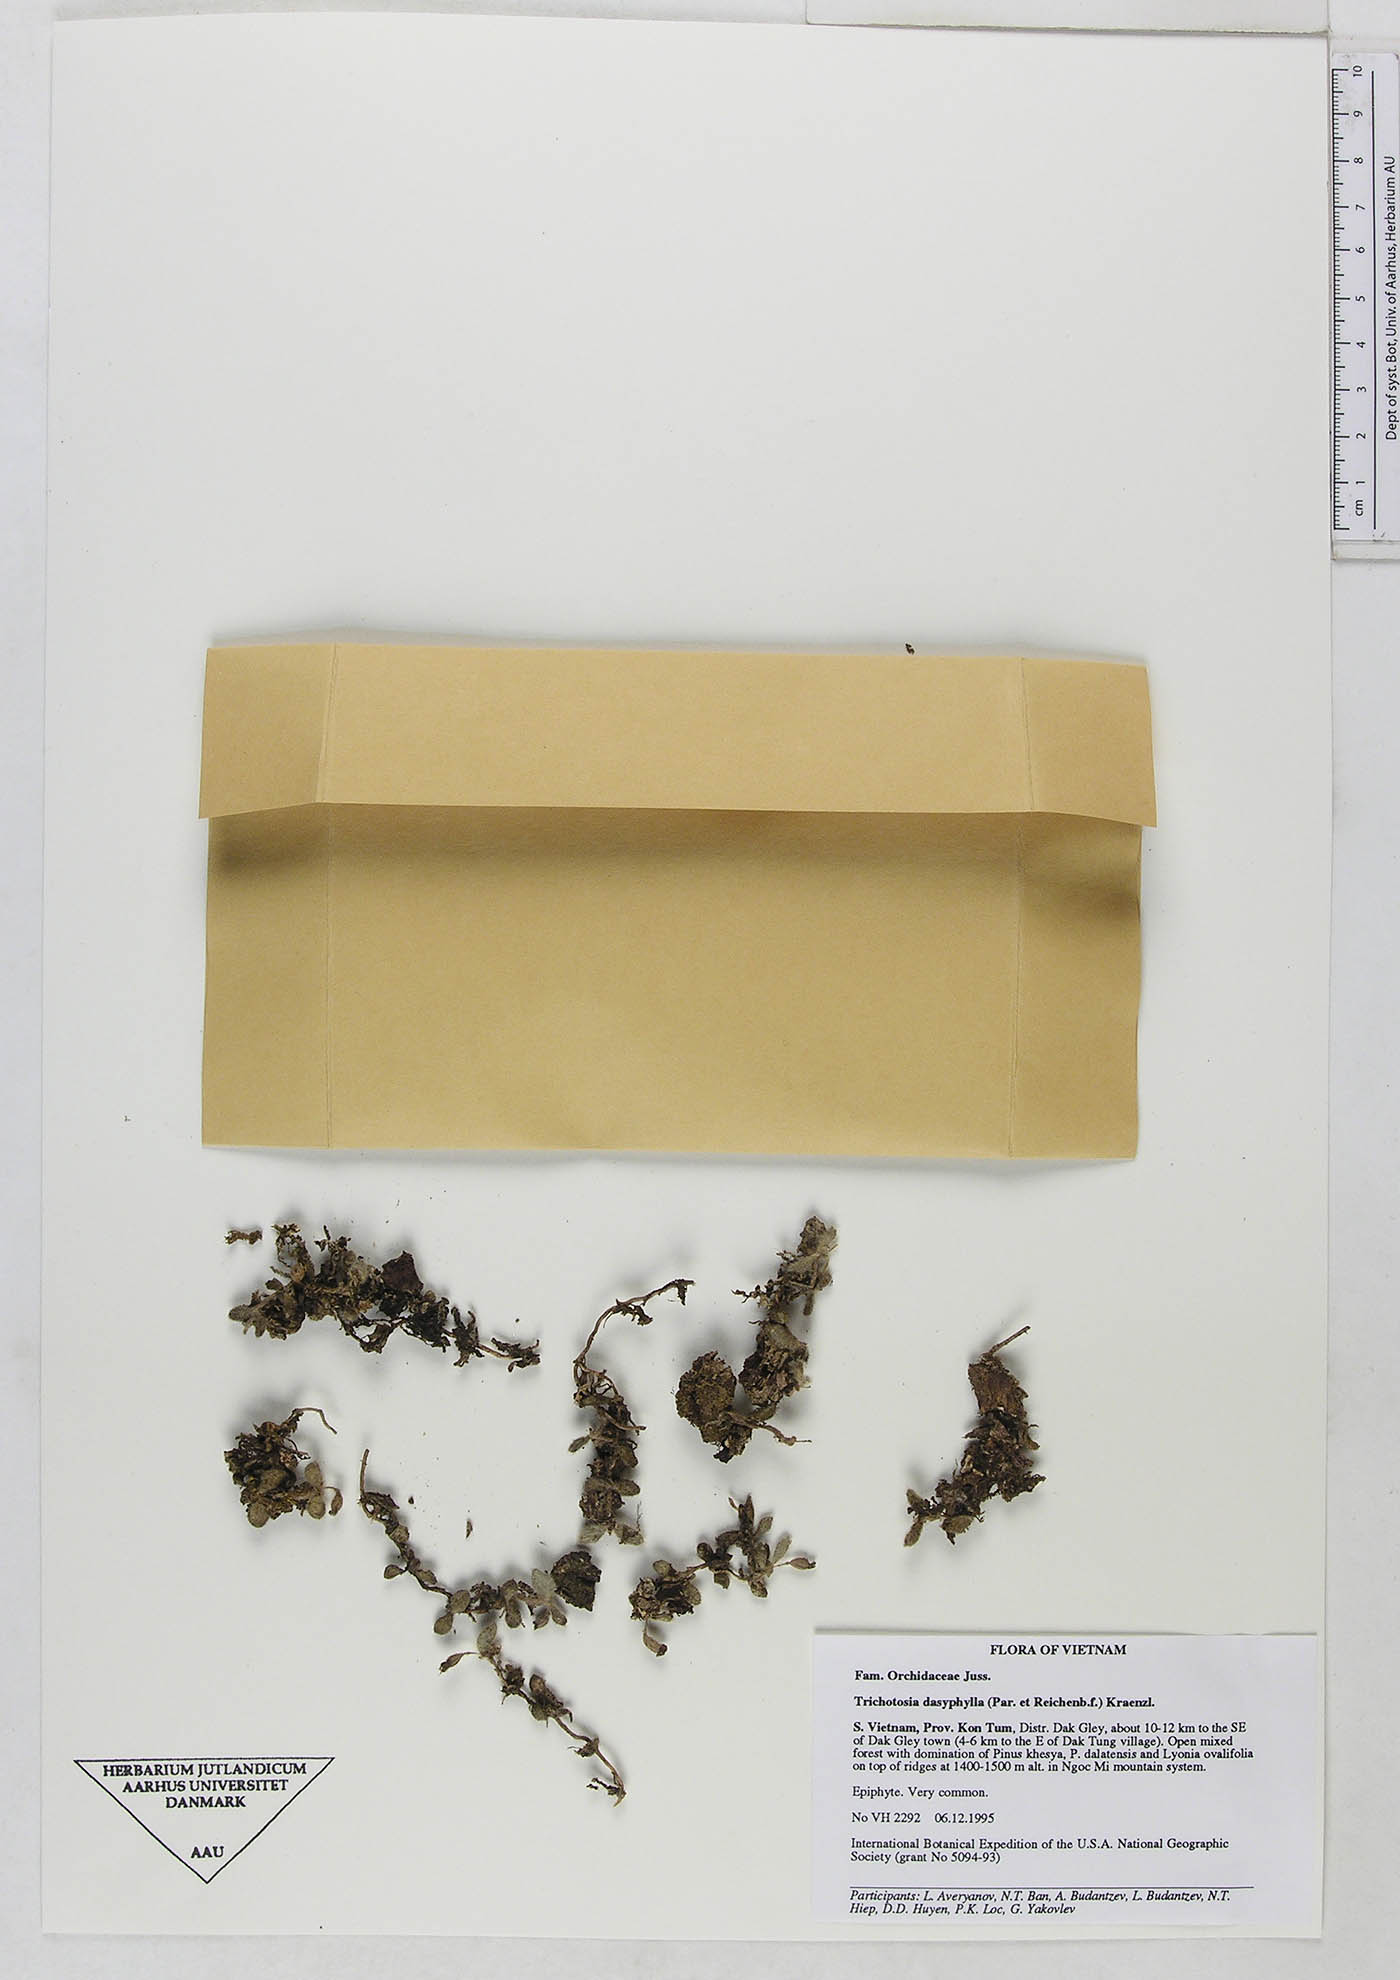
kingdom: Plantae
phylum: Tracheophyta
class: Liliopsida
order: Asparagales
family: Orchidaceae
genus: Trichotosia
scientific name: Trichotosia dasyphylla
